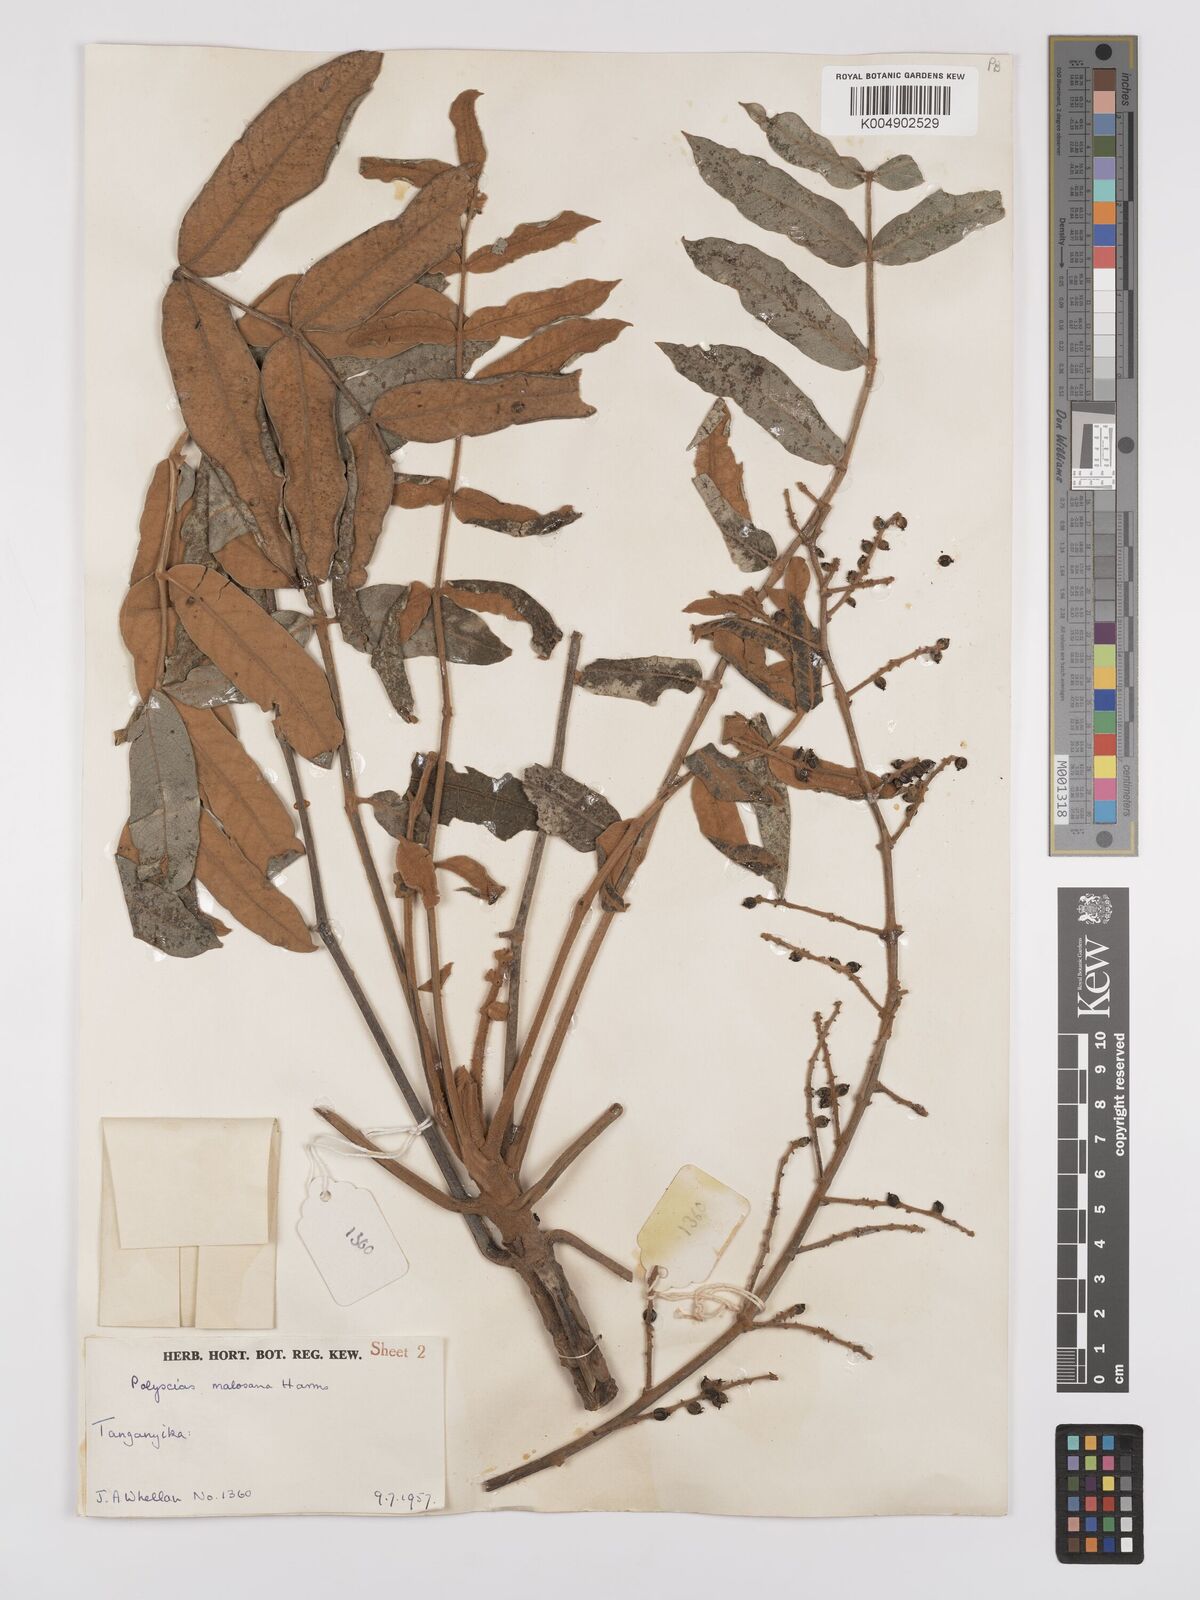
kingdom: Plantae
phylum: Tracheophyta
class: Magnoliopsida
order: Apiales
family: Araliaceae
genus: Polyscias
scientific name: Polyscias fulva
